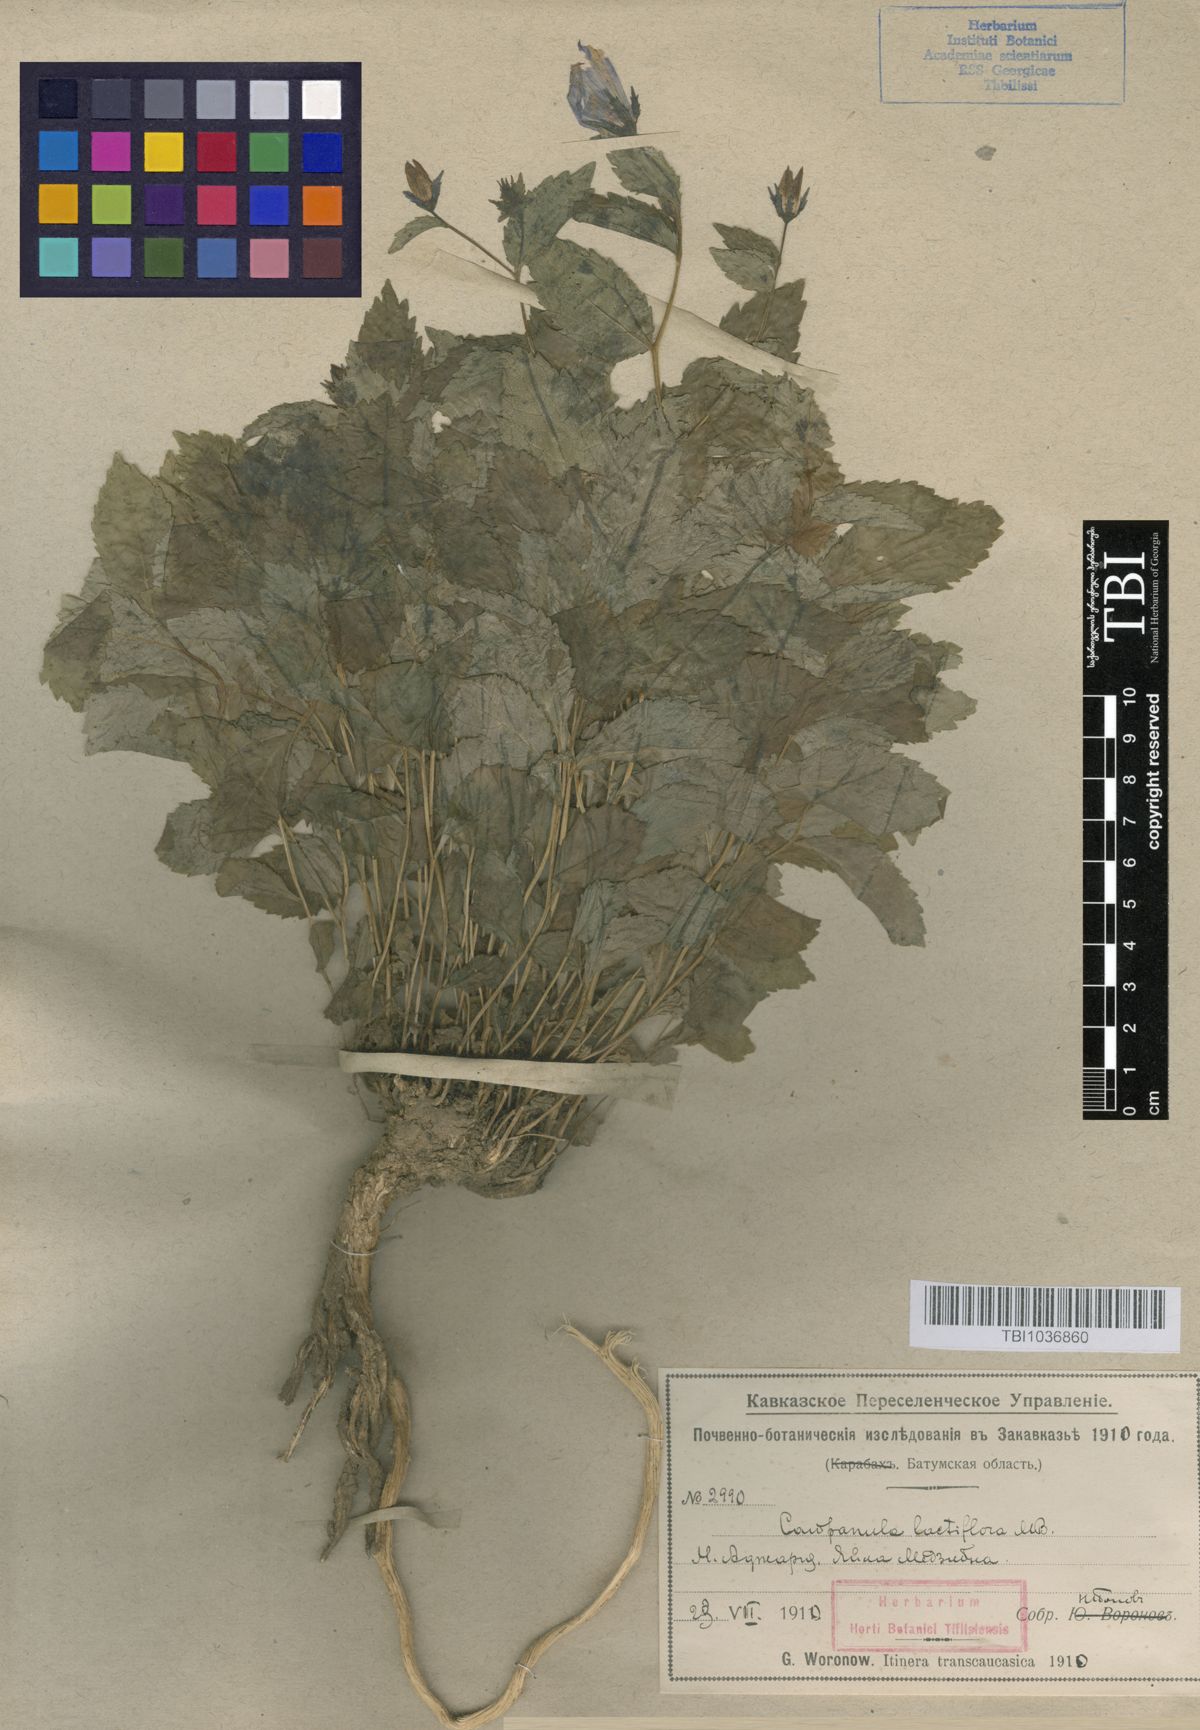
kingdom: Plantae
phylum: Tracheophyta
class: Magnoliopsida
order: Asterales
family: Campanulaceae
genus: Campanula
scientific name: Campanula lactiflora
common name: Milky bellflower
